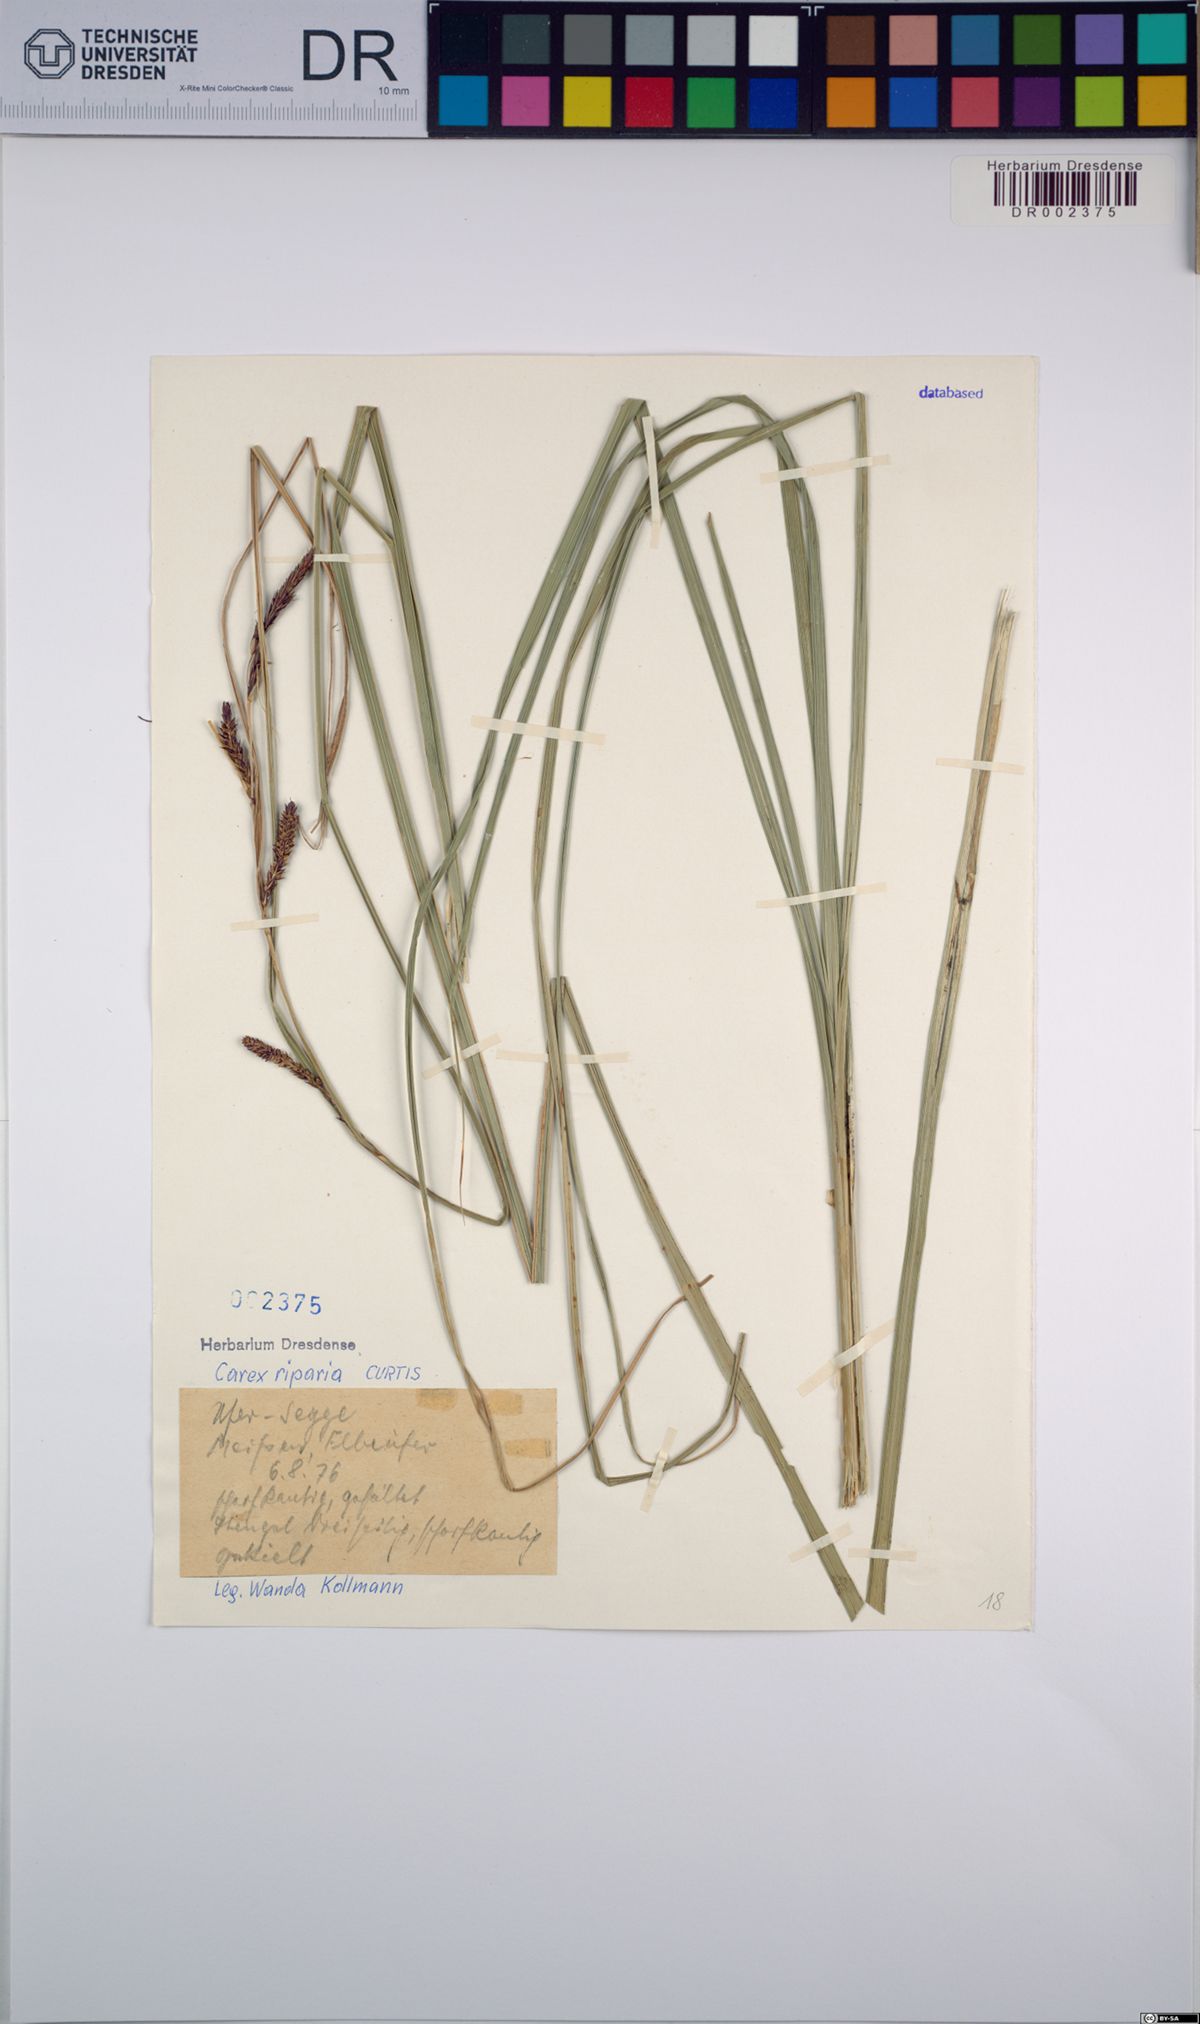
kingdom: Plantae
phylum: Tracheophyta
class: Liliopsida
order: Poales
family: Cyperaceae
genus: Carex
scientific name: Carex riparia
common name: Greater pond-sedge
